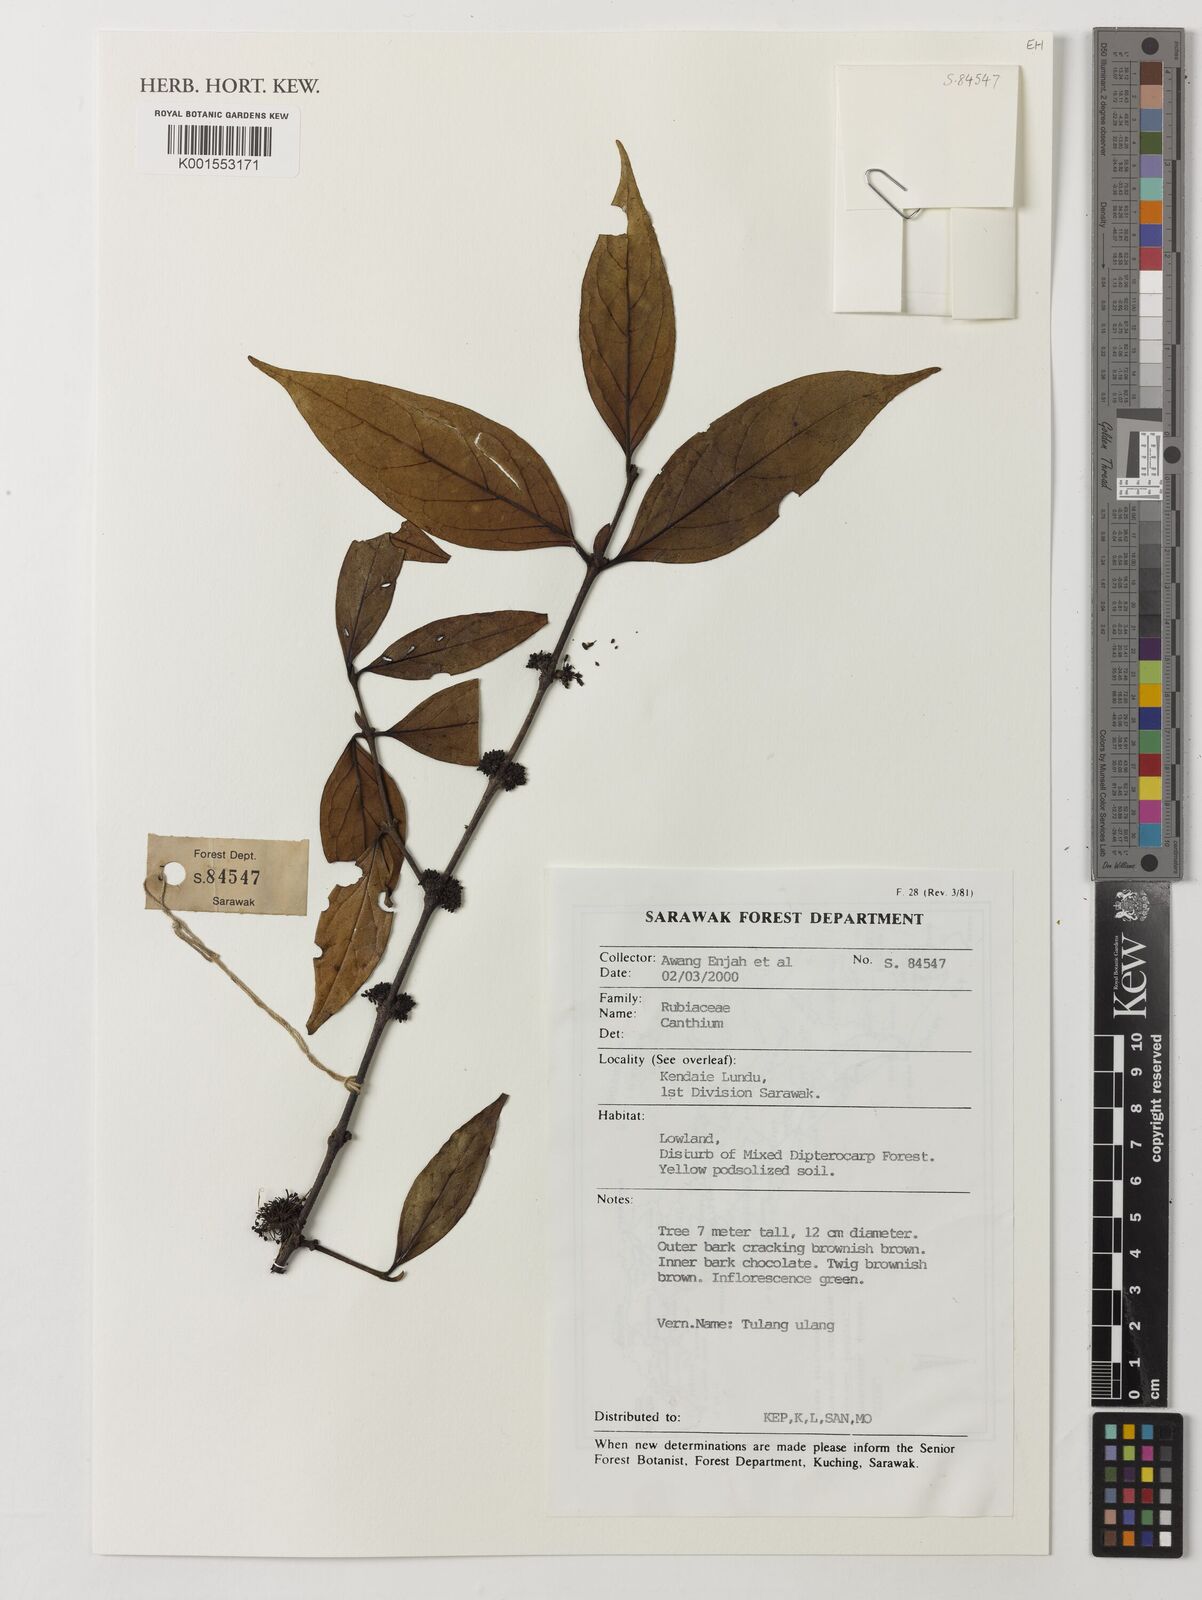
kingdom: Plantae
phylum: Tracheophyta
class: Magnoliopsida
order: Gentianales
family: Rubiaceae
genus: Canthium
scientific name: Canthium
